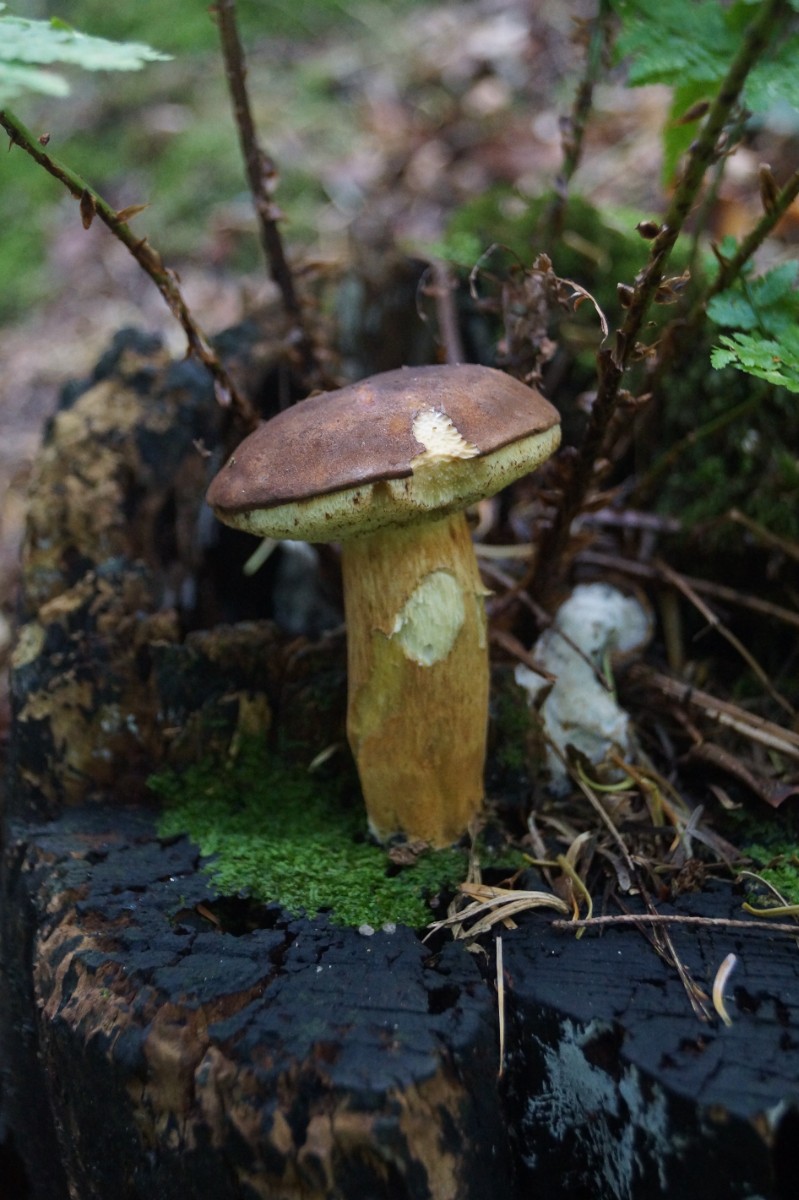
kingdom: Fungi
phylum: Basidiomycota
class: Agaricomycetes
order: Boletales
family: Boletaceae
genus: Imleria
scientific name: Imleria badia
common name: brunstokket rørhat
